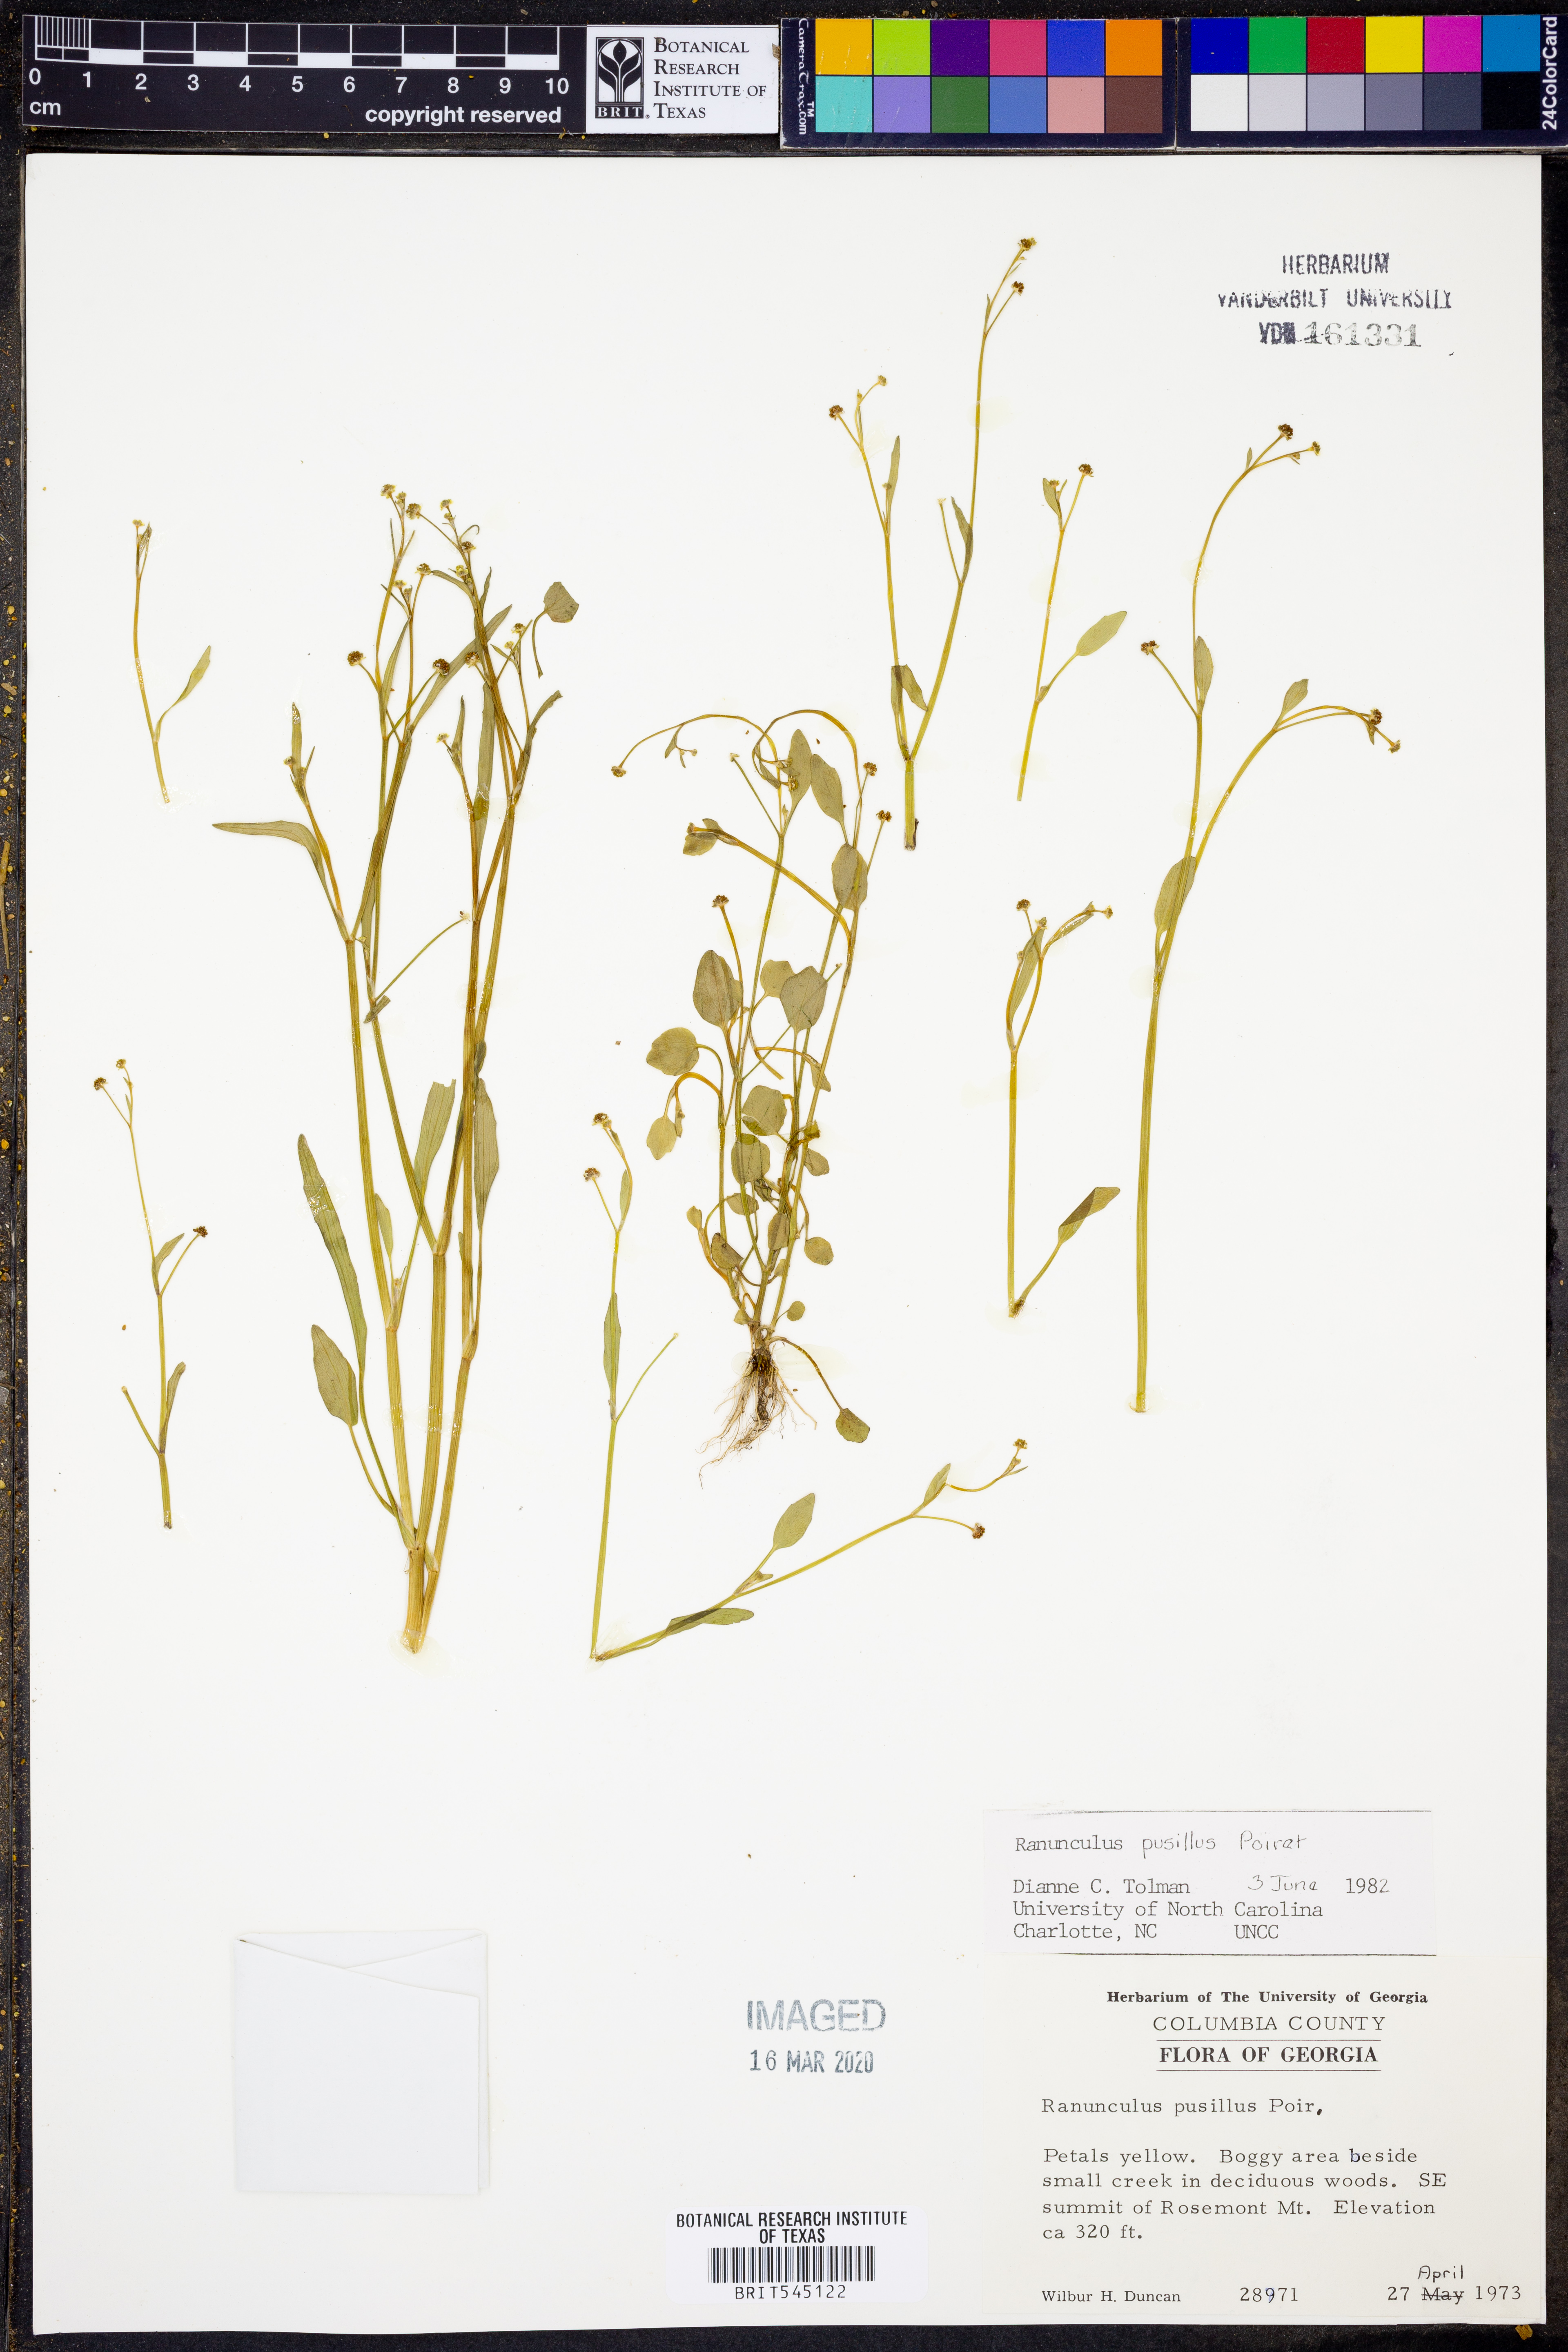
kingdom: Plantae
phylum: Tracheophyta
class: Magnoliopsida
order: Ranunculales
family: Ranunculaceae
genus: Ranunculus
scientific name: Ranunculus pusillus
